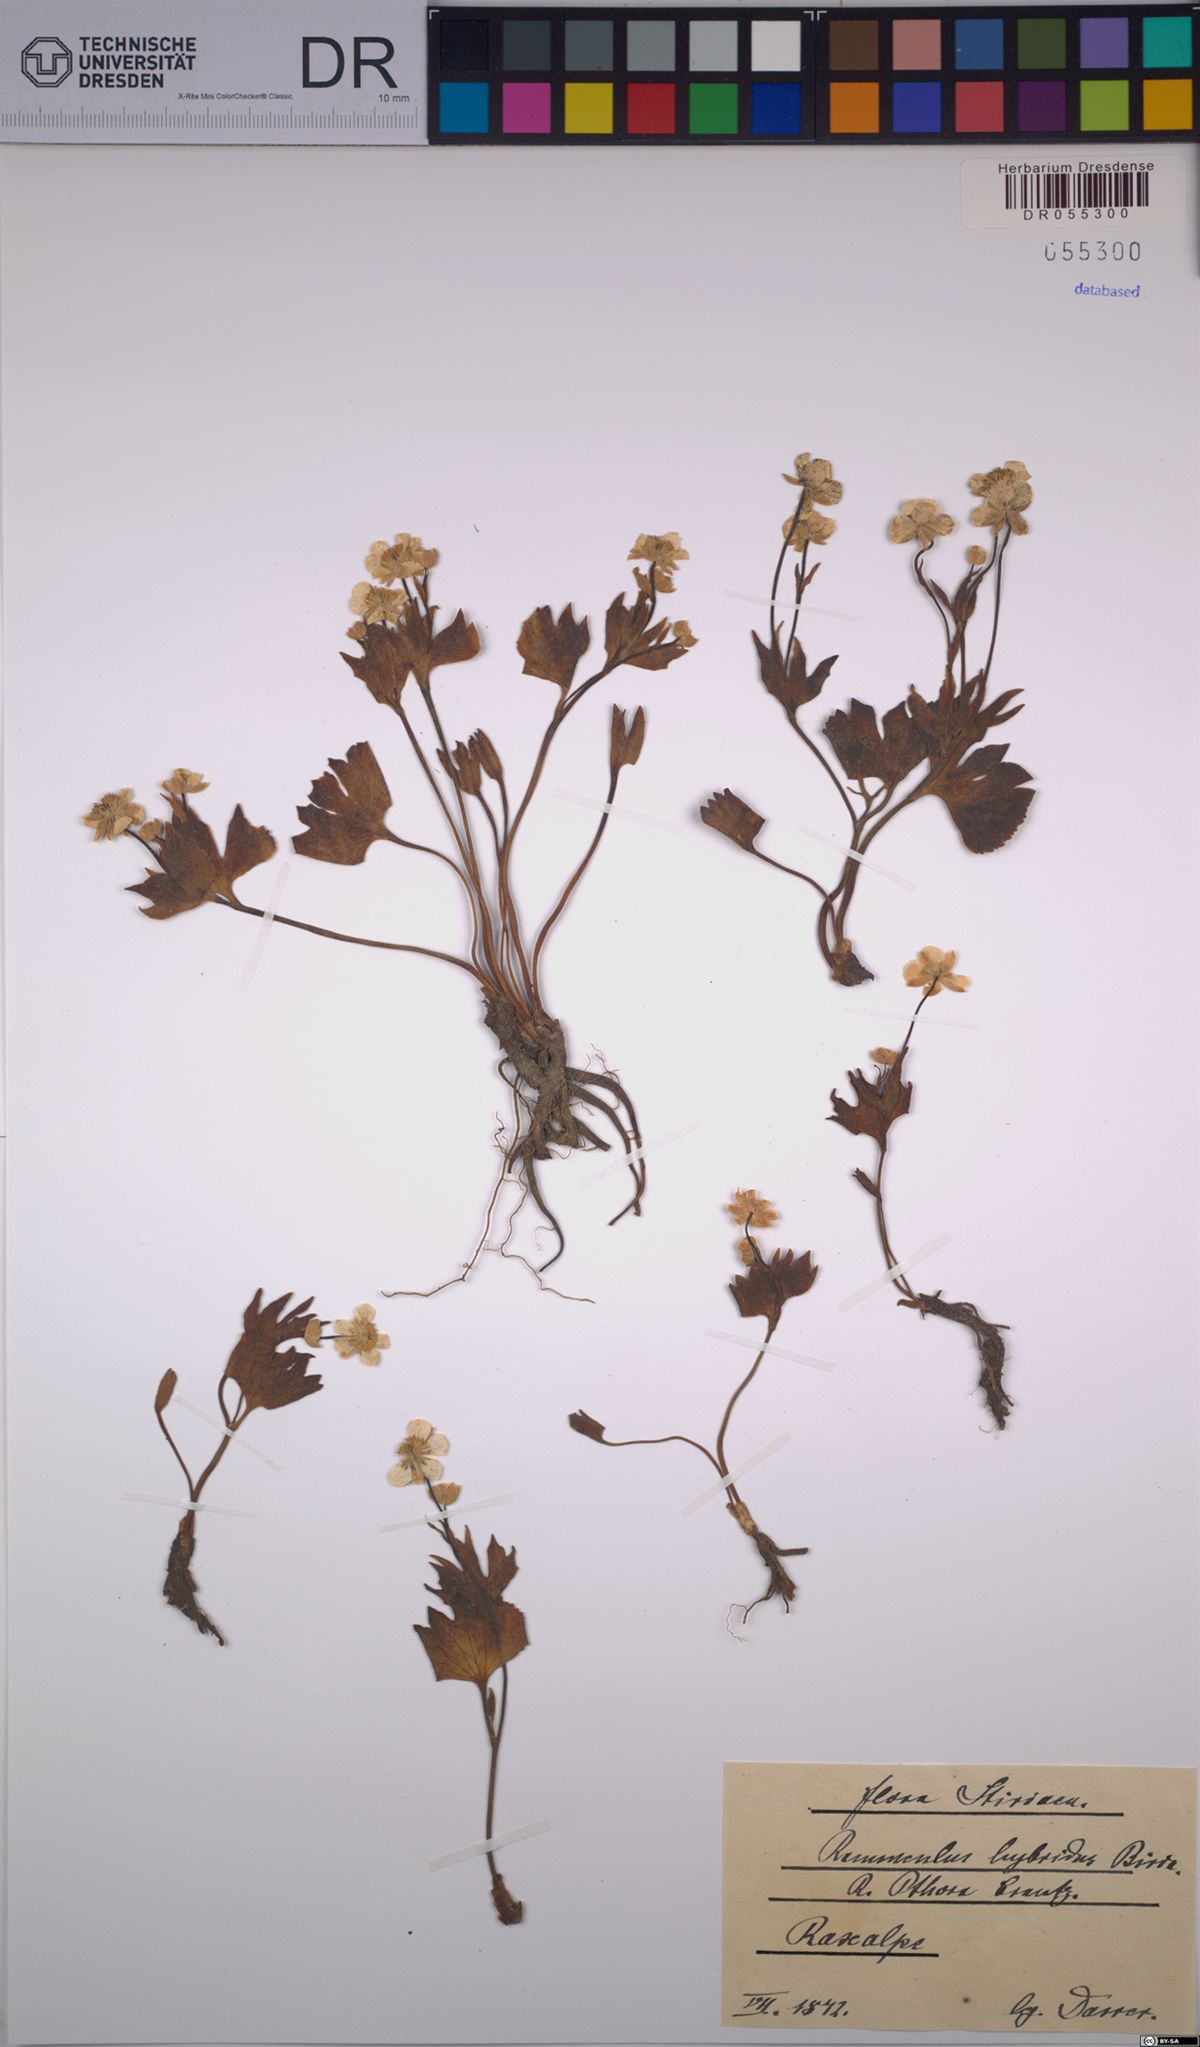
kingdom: Plantae
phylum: Tracheophyta
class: Magnoliopsida
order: Ranunculales
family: Ranunculaceae
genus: Ranunculus
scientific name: Ranunculus hybridus
